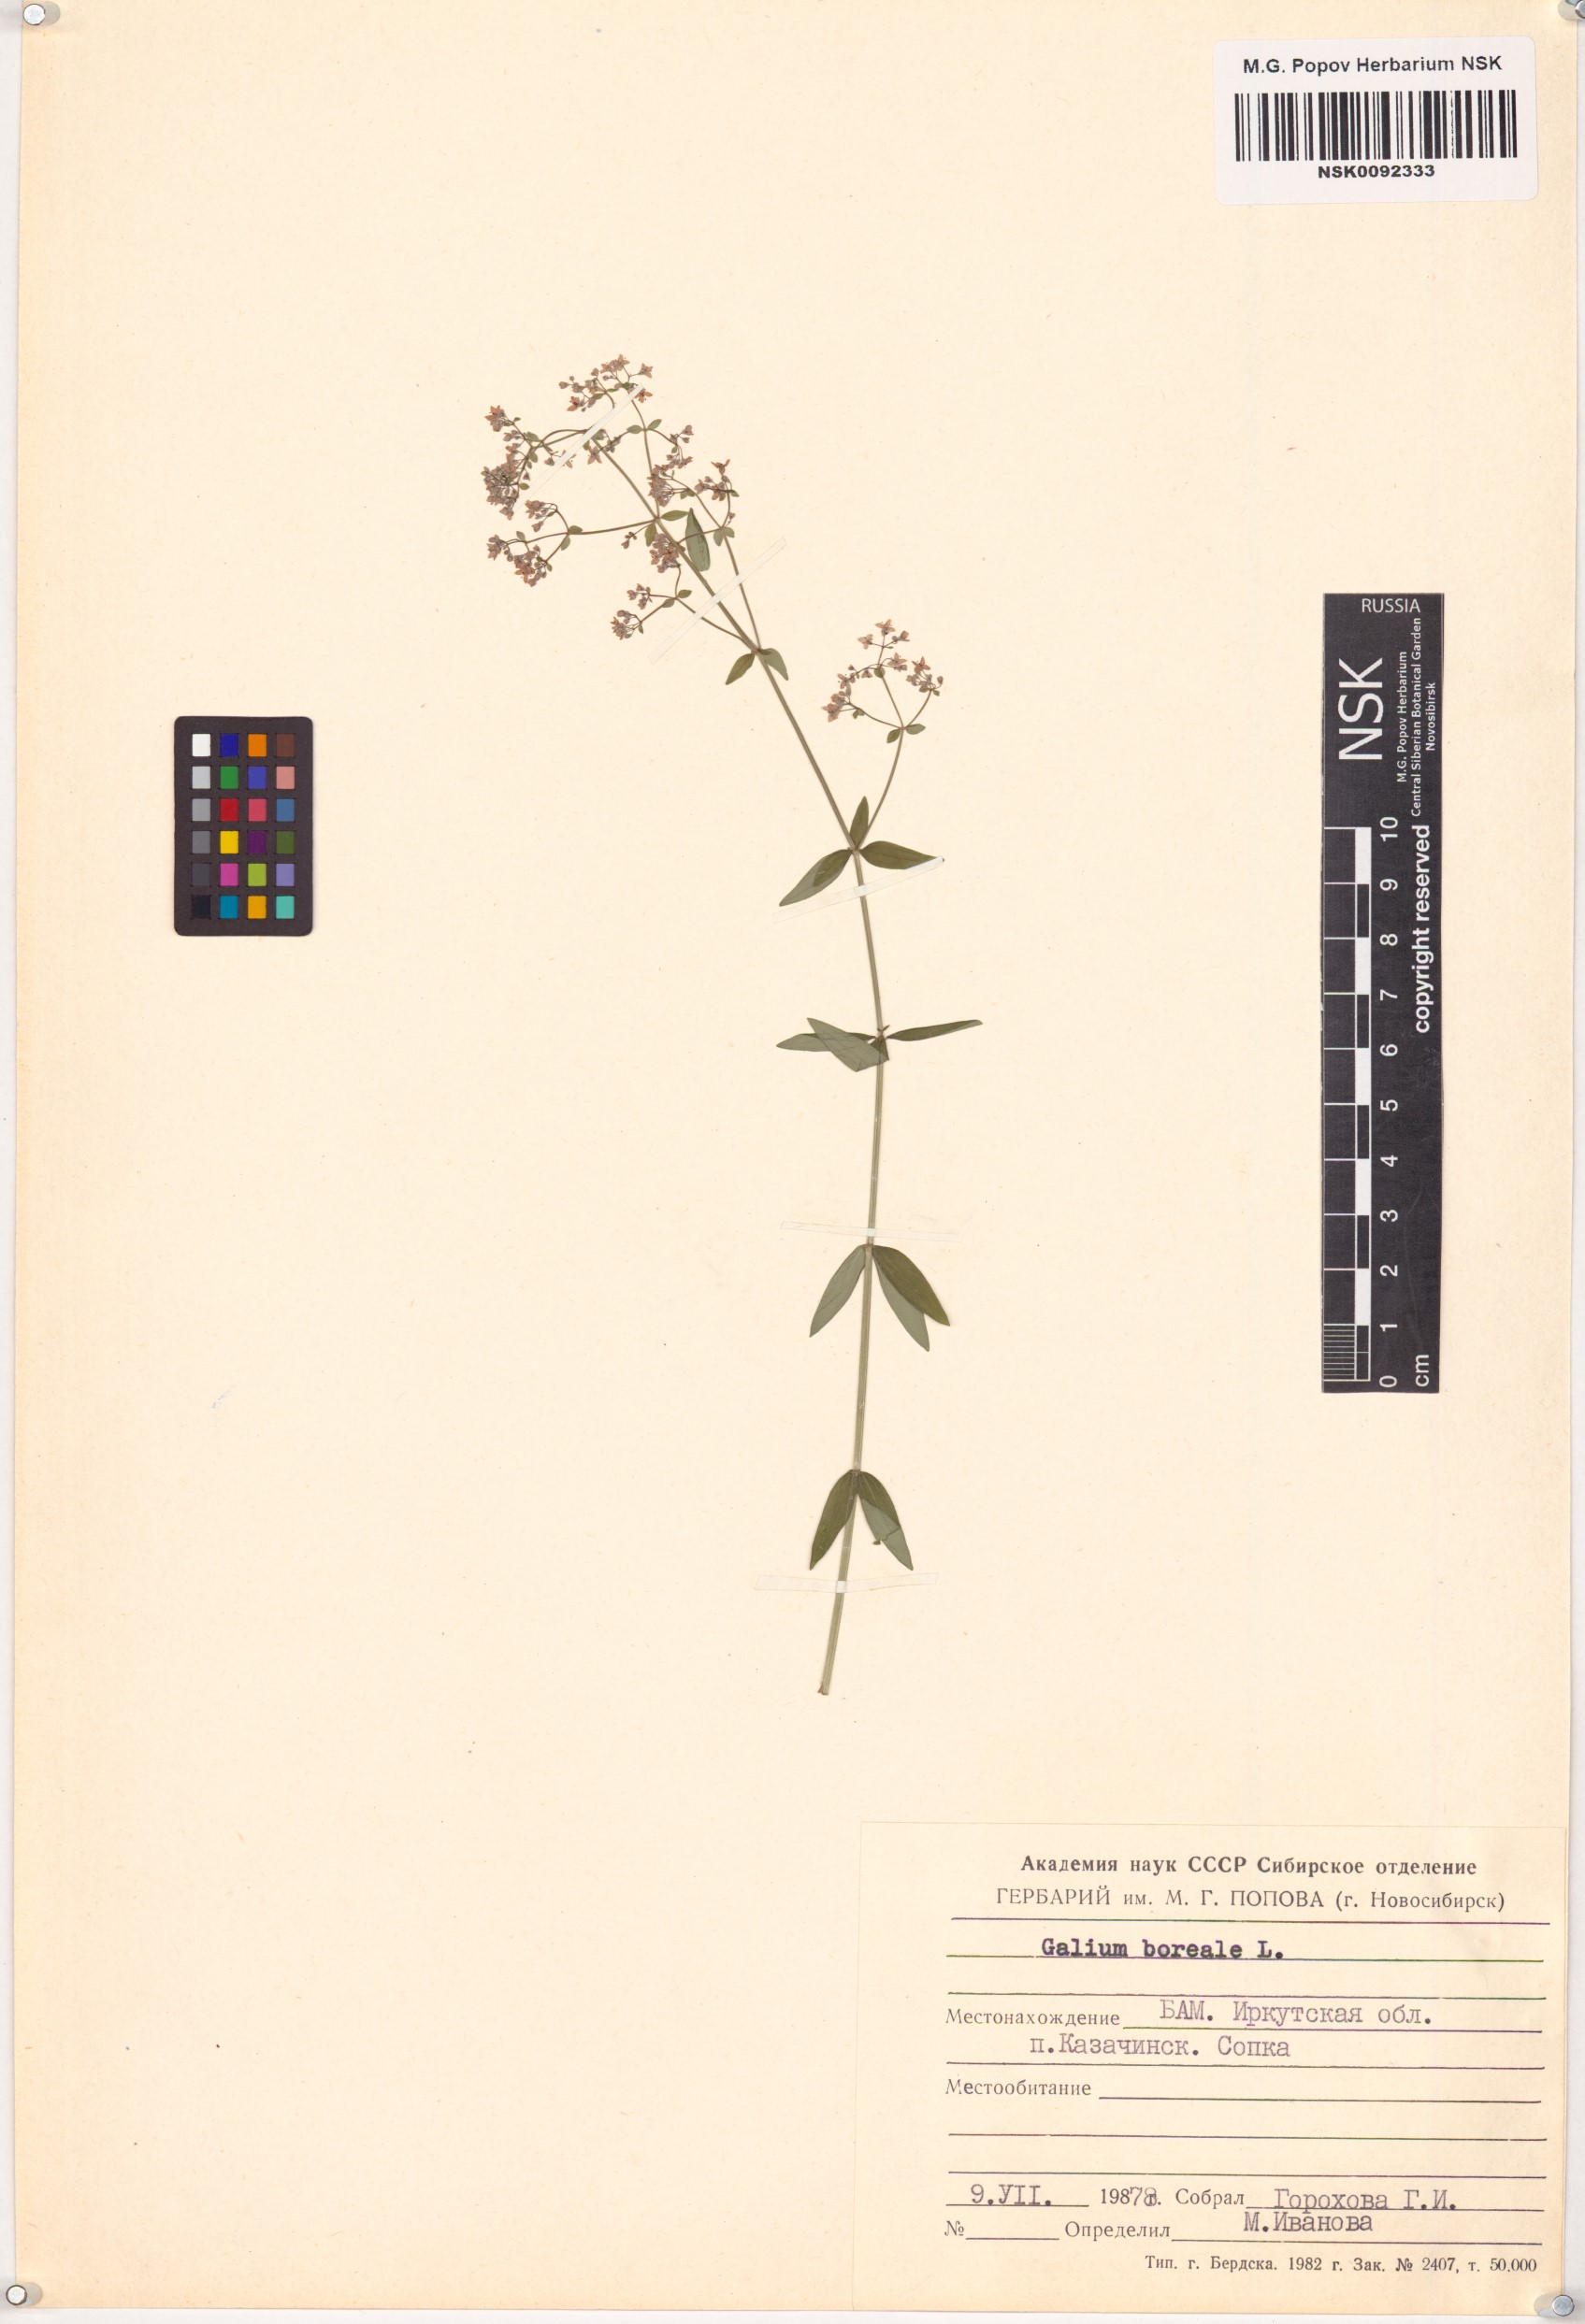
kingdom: Plantae
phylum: Tracheophyta
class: Magnoliopsida
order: Gentianales
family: Rubiaceae
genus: Galium
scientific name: Galium boreale
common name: Northern bedstraw
